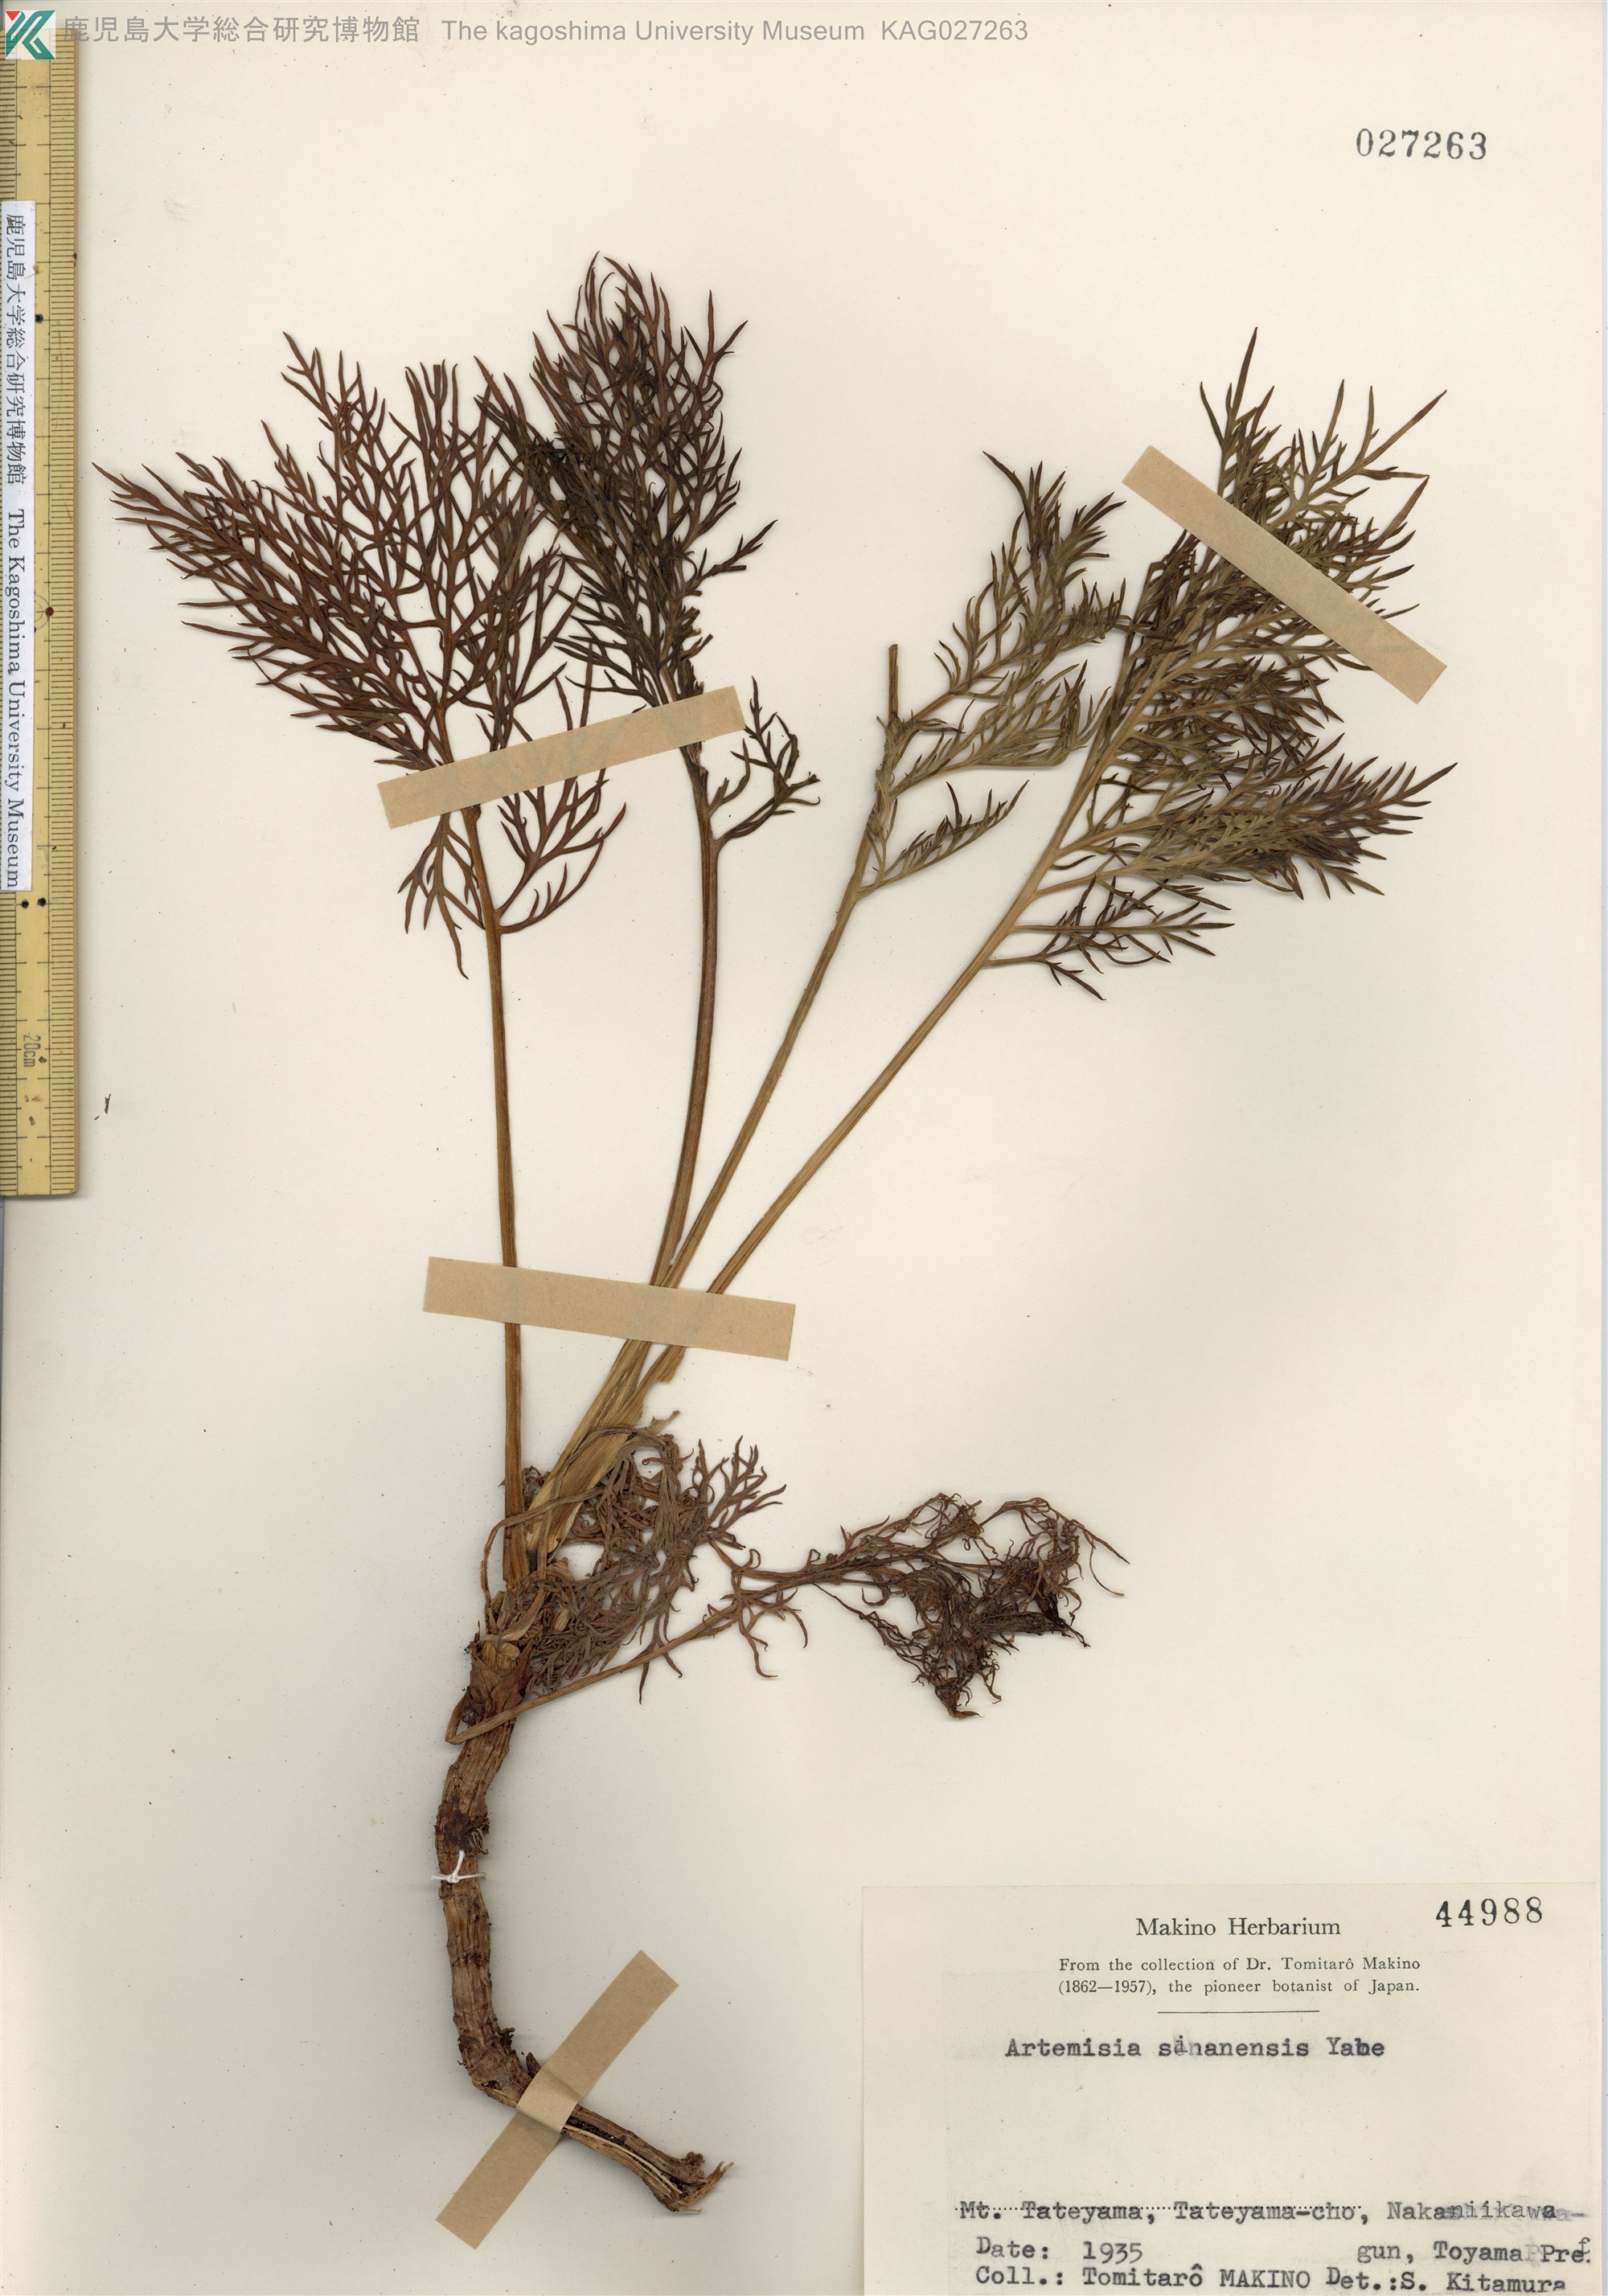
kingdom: Plantae
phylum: Tracheophyta
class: Magnoliopsida
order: Asterales
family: Asteraceae
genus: Artemisia
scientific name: Artemisia
